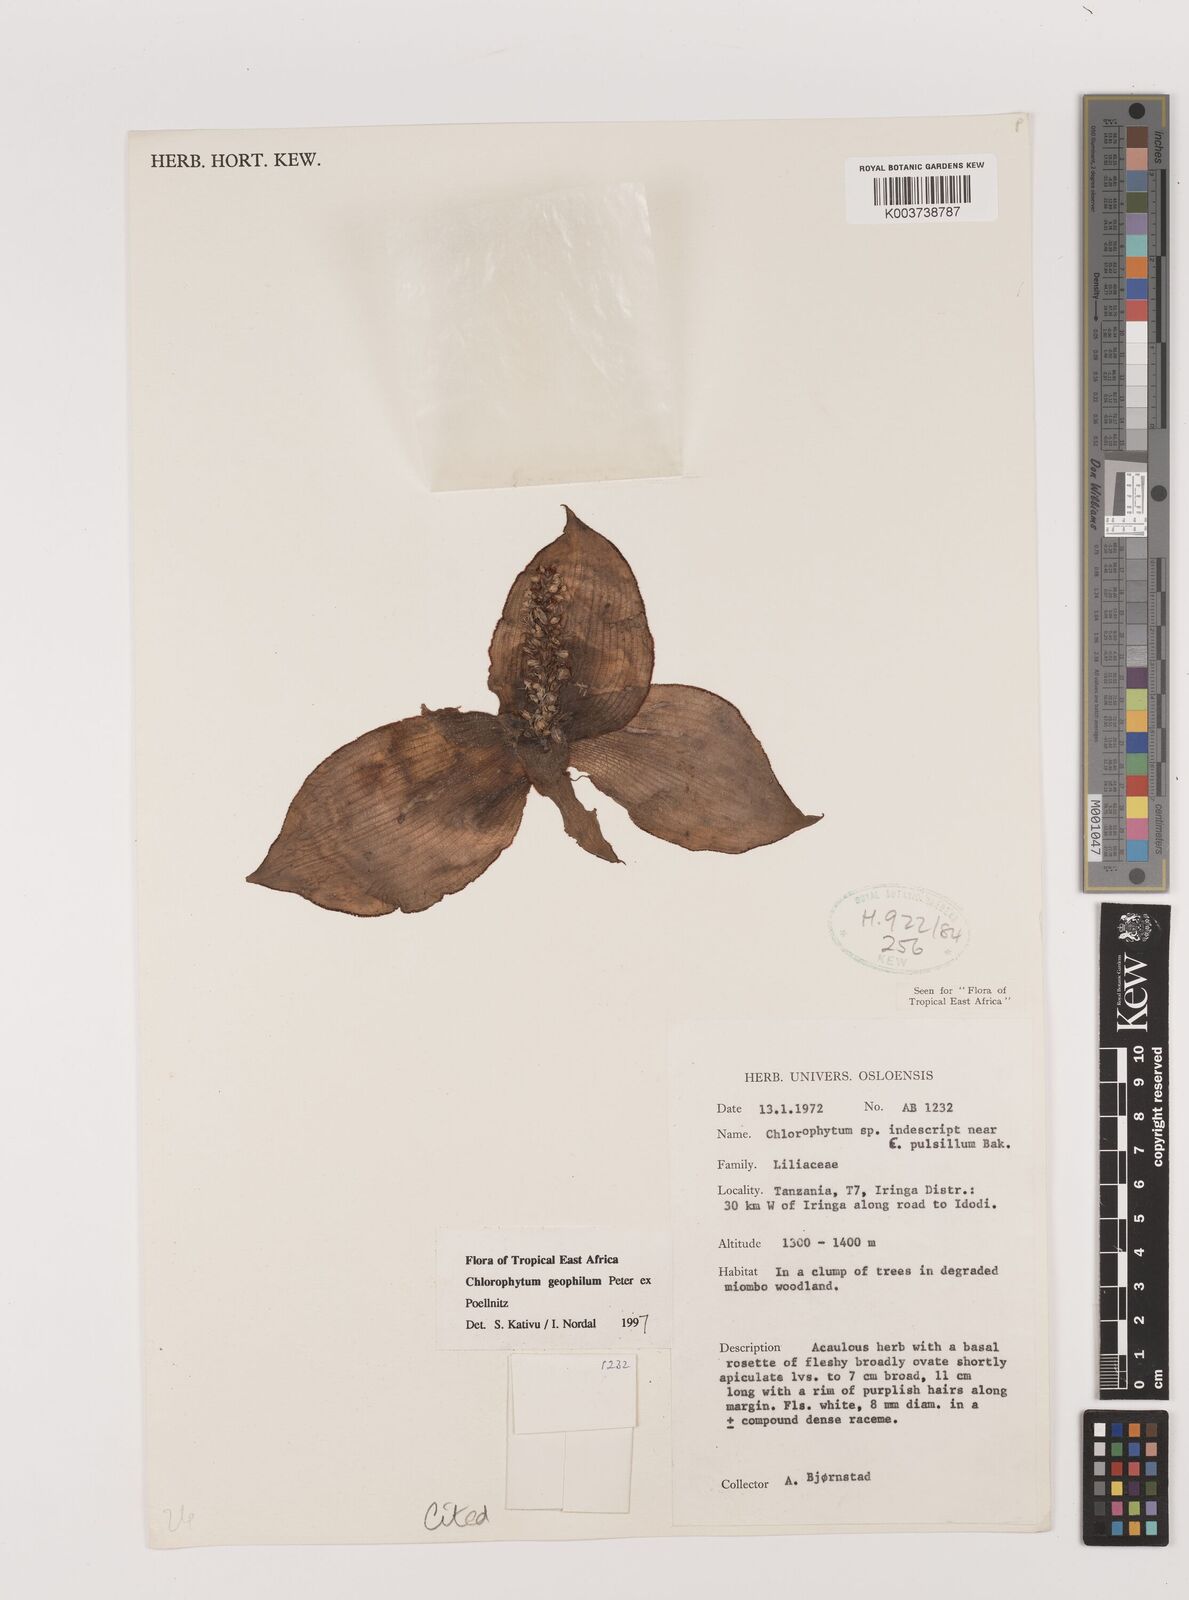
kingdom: Plantae
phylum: Tracheophyta
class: Liliopsida
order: Asparagales
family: Asparagaceae
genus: Chlorophytum
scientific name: Chlorophytum geophilum
